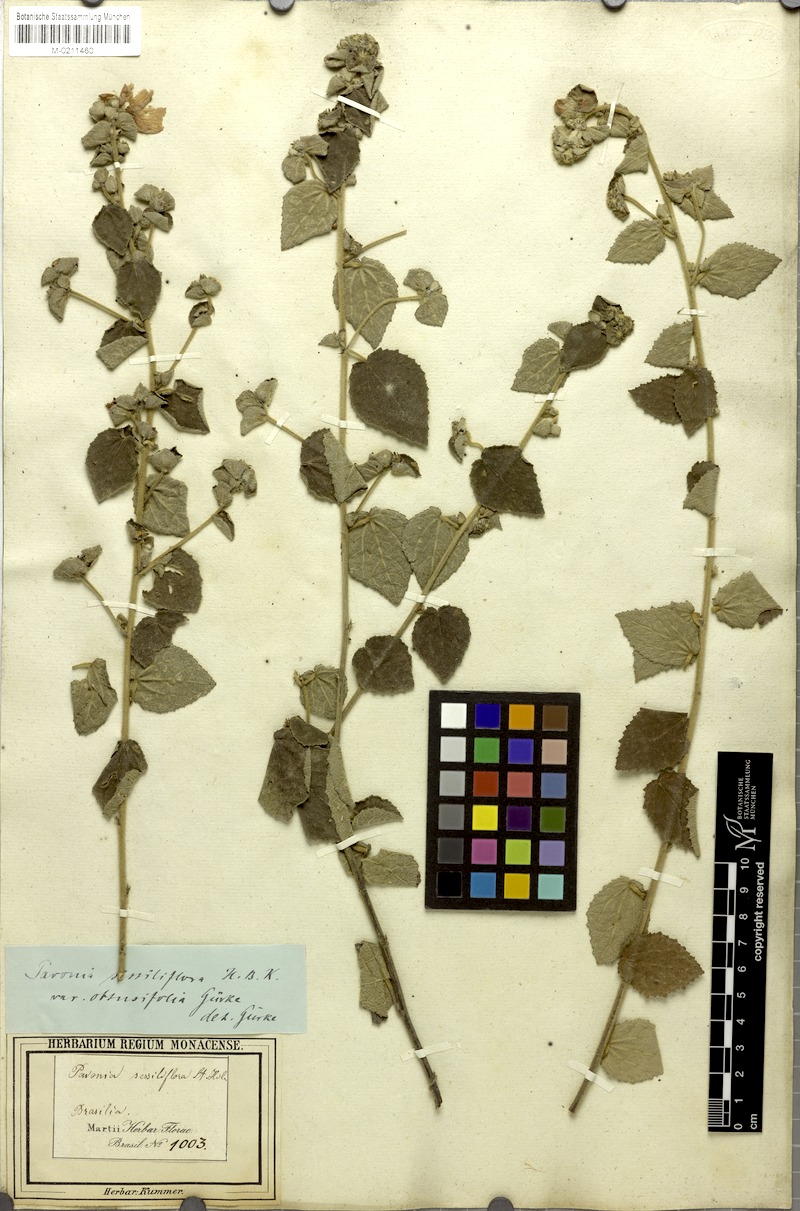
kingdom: Plantae
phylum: Tracheophyta
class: Magnoliopsida
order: Malvales
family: Malvaceae
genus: Peltaea
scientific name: Peltaea trinervis
